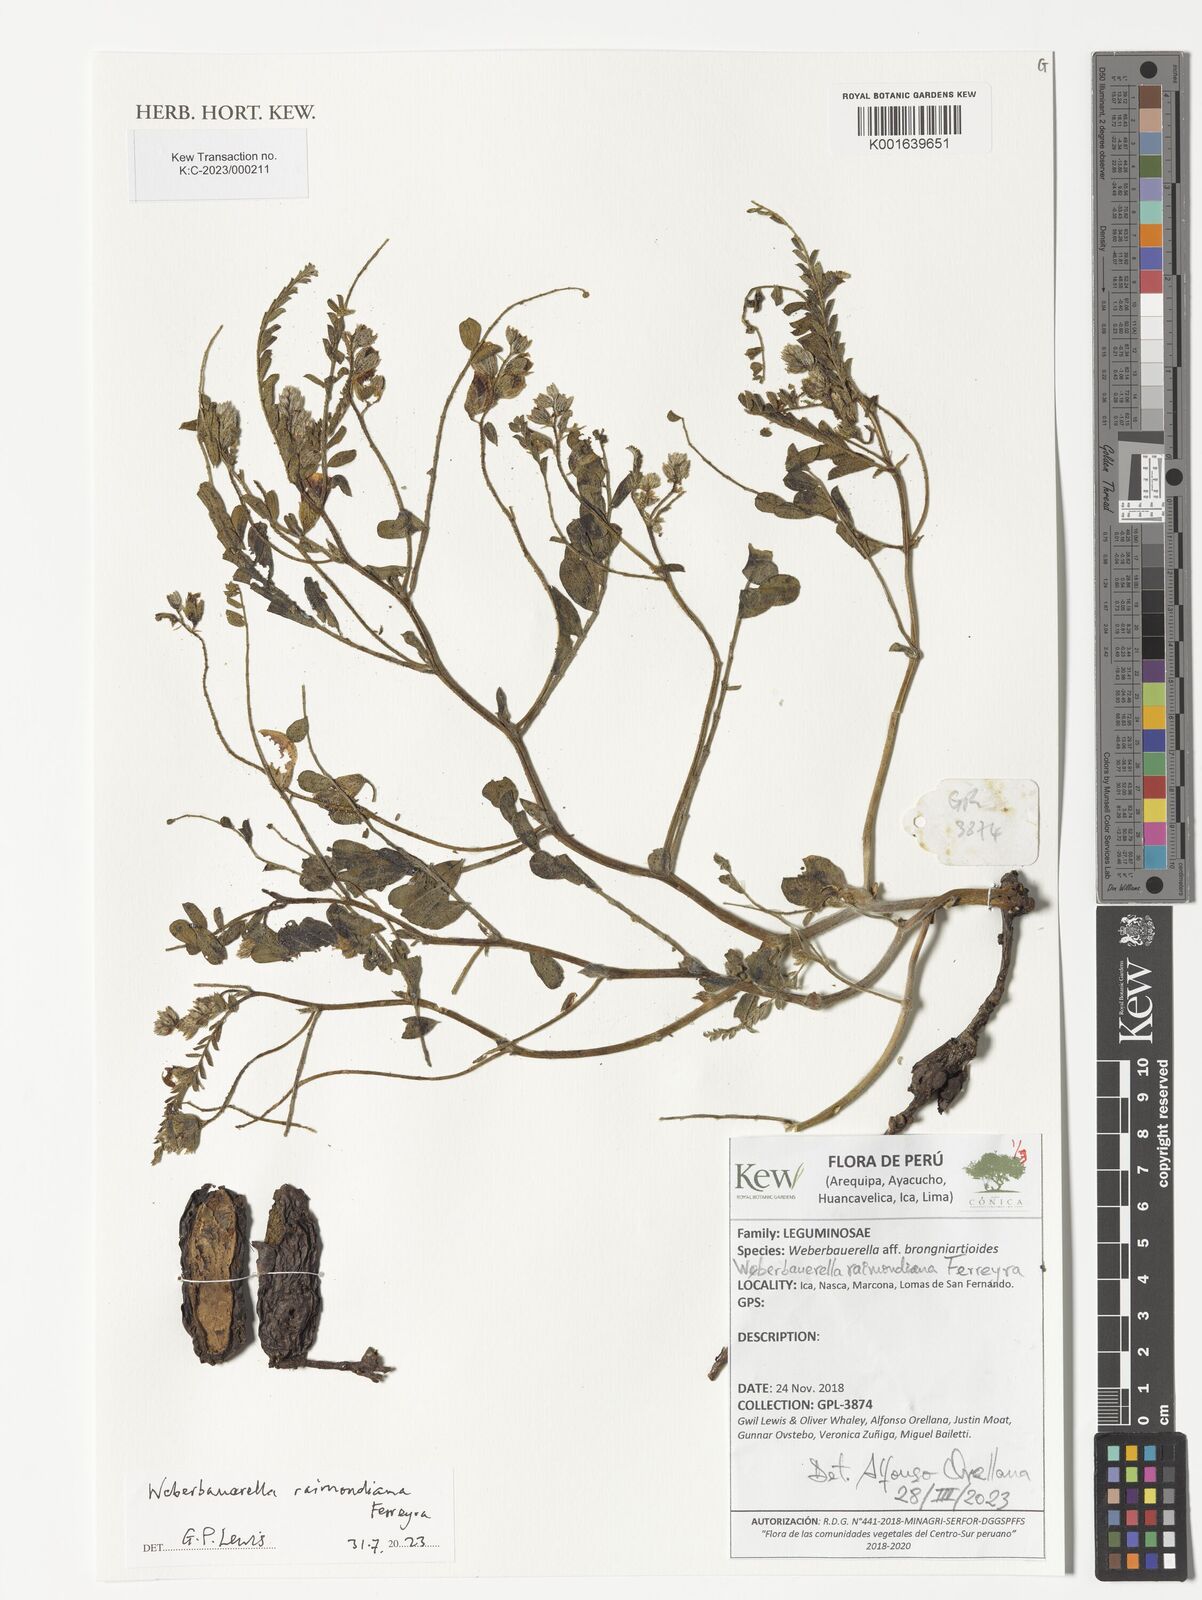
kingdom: Plantae
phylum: Tracheophyta
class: Magnoliopsida
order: Fabales
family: Fabaceae
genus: Weberbauerella
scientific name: Weberbauerella raimondiana
